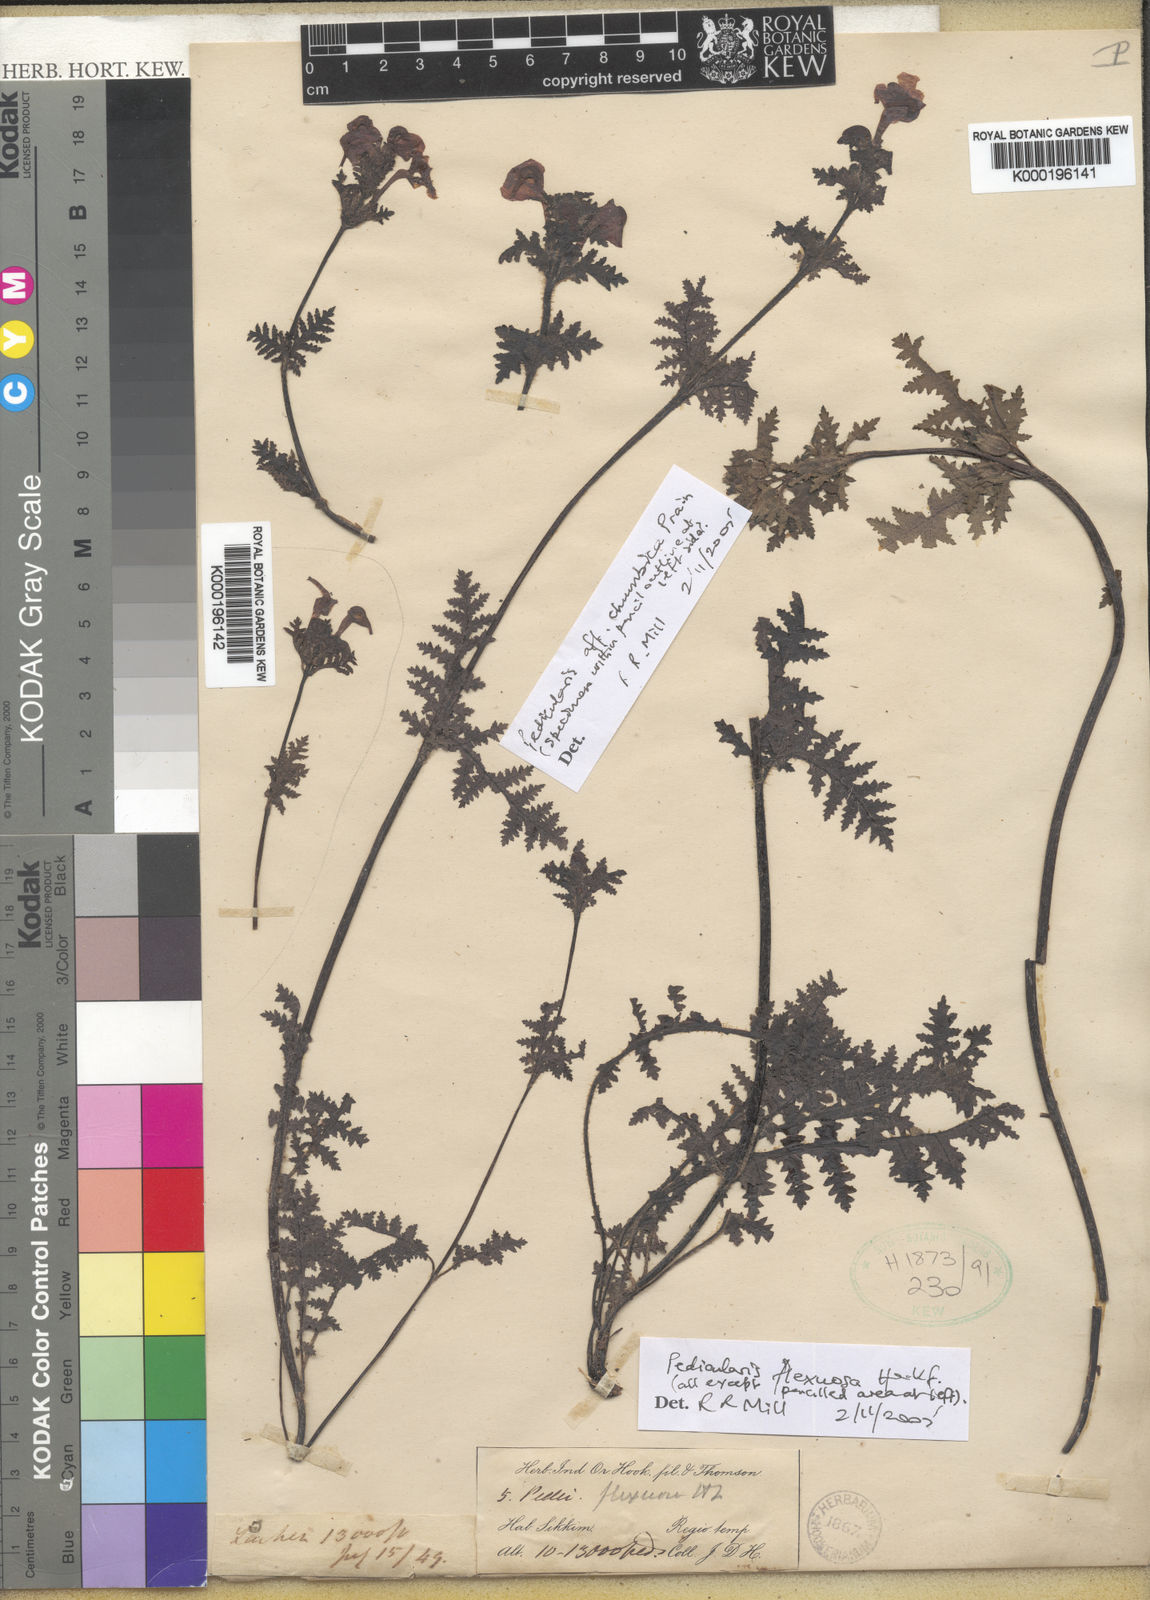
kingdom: Plantae
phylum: Tracheophyta
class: Magnoliopsida
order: Lamiales
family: Orobanchaceae
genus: Pedicularis
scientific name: Pedicularis flexuosa
